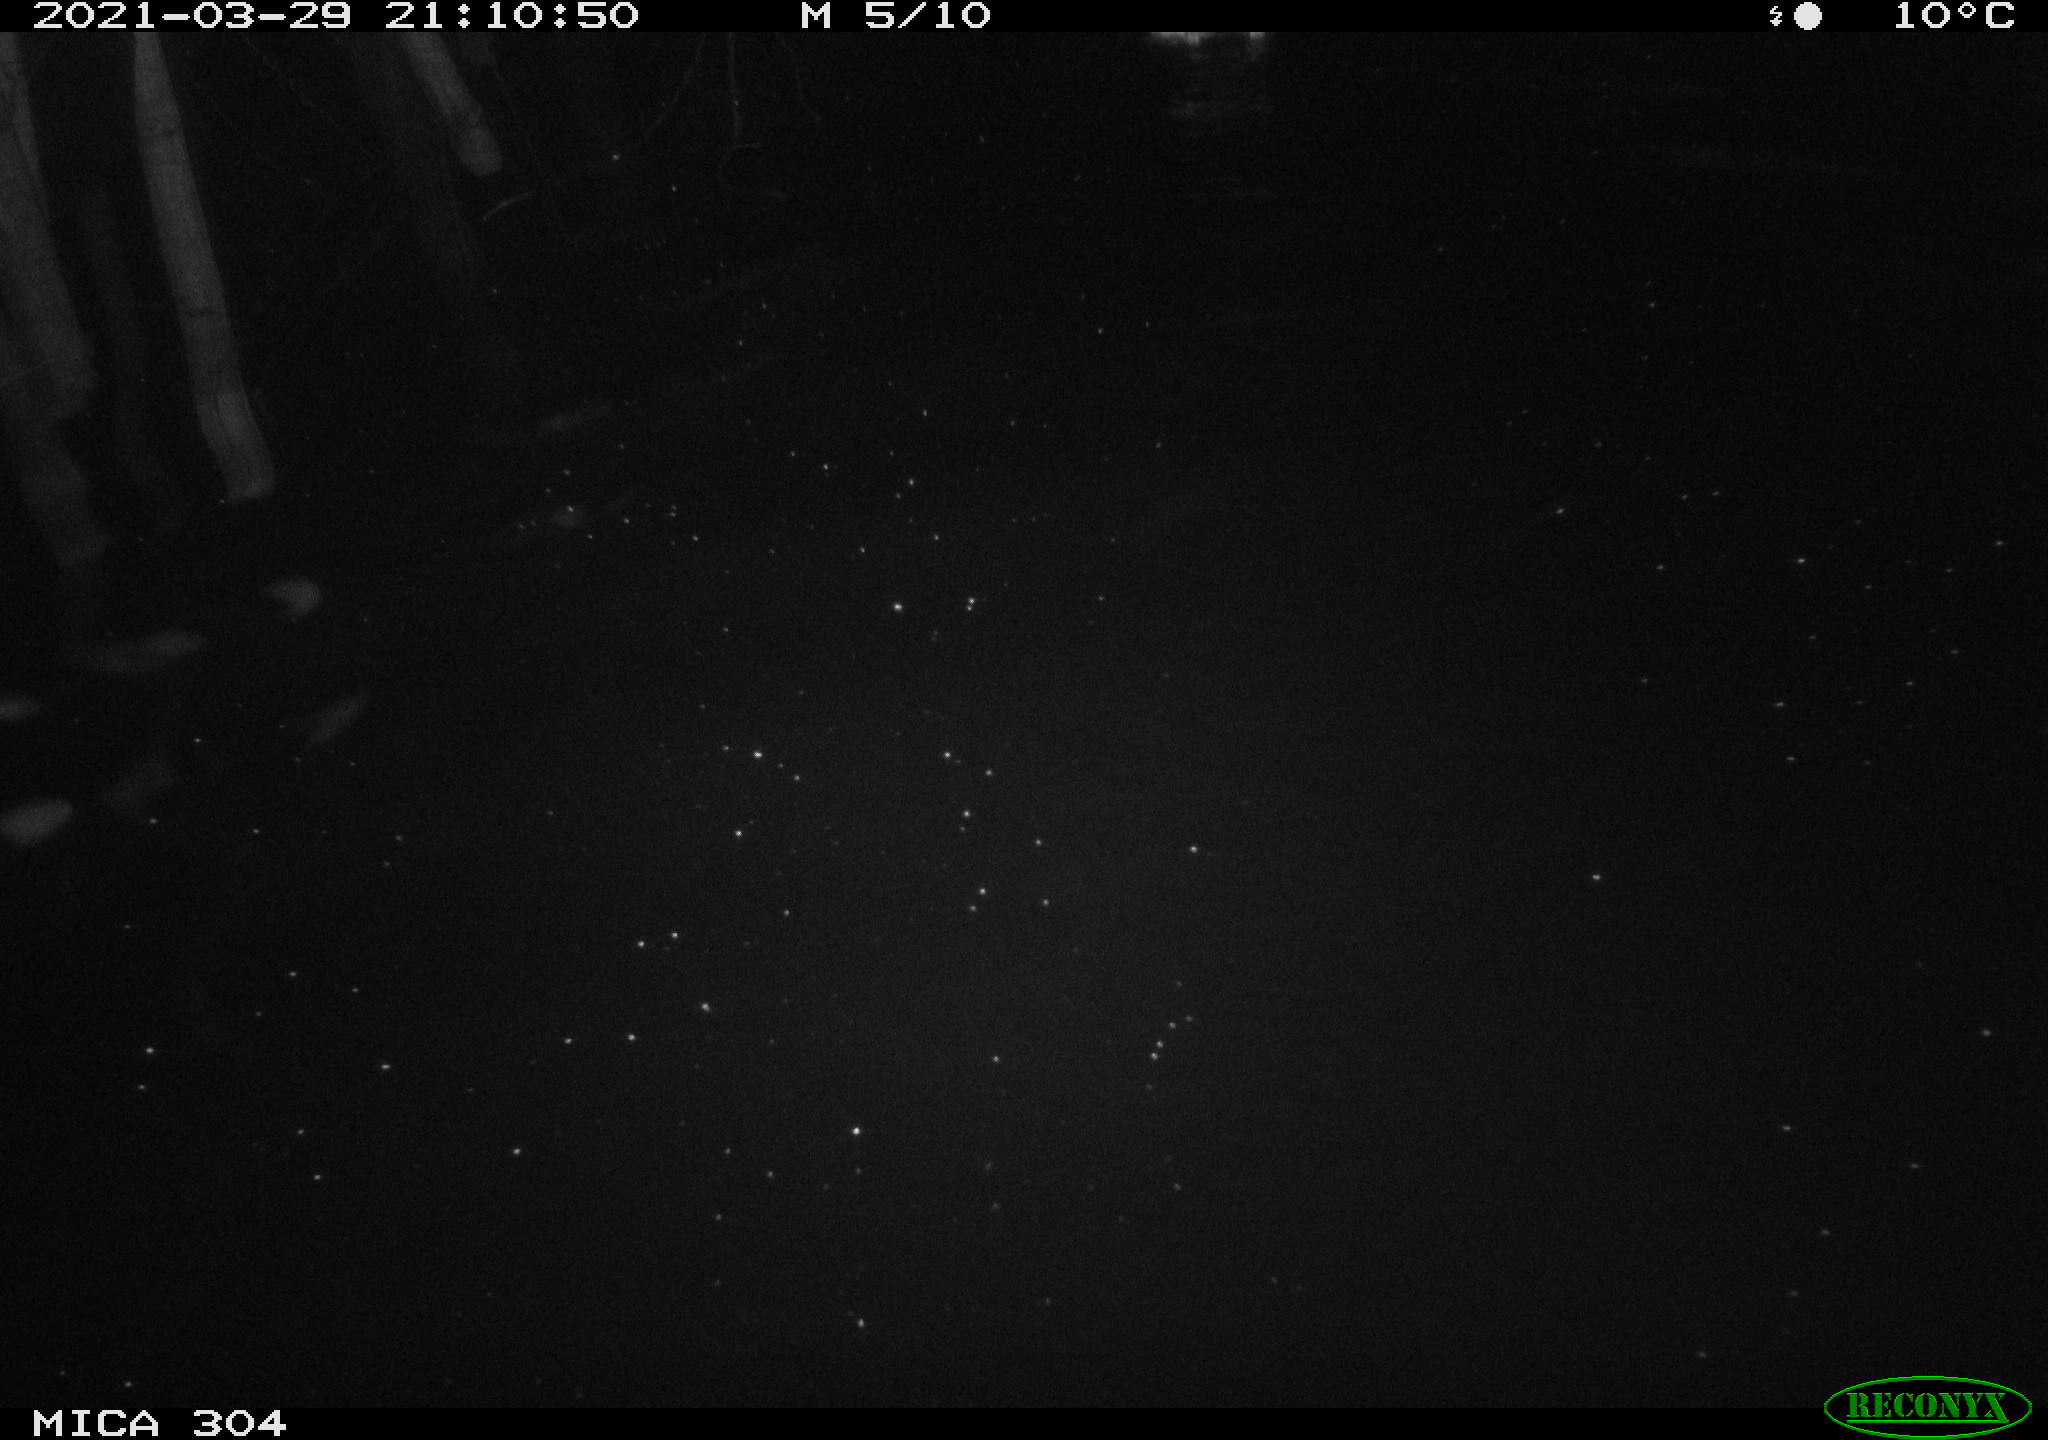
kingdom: Animalia
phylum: Chordata
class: Aves
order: Anseriformes
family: Anatidae
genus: Anas
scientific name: Anas platyrhynchos
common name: Mallard
